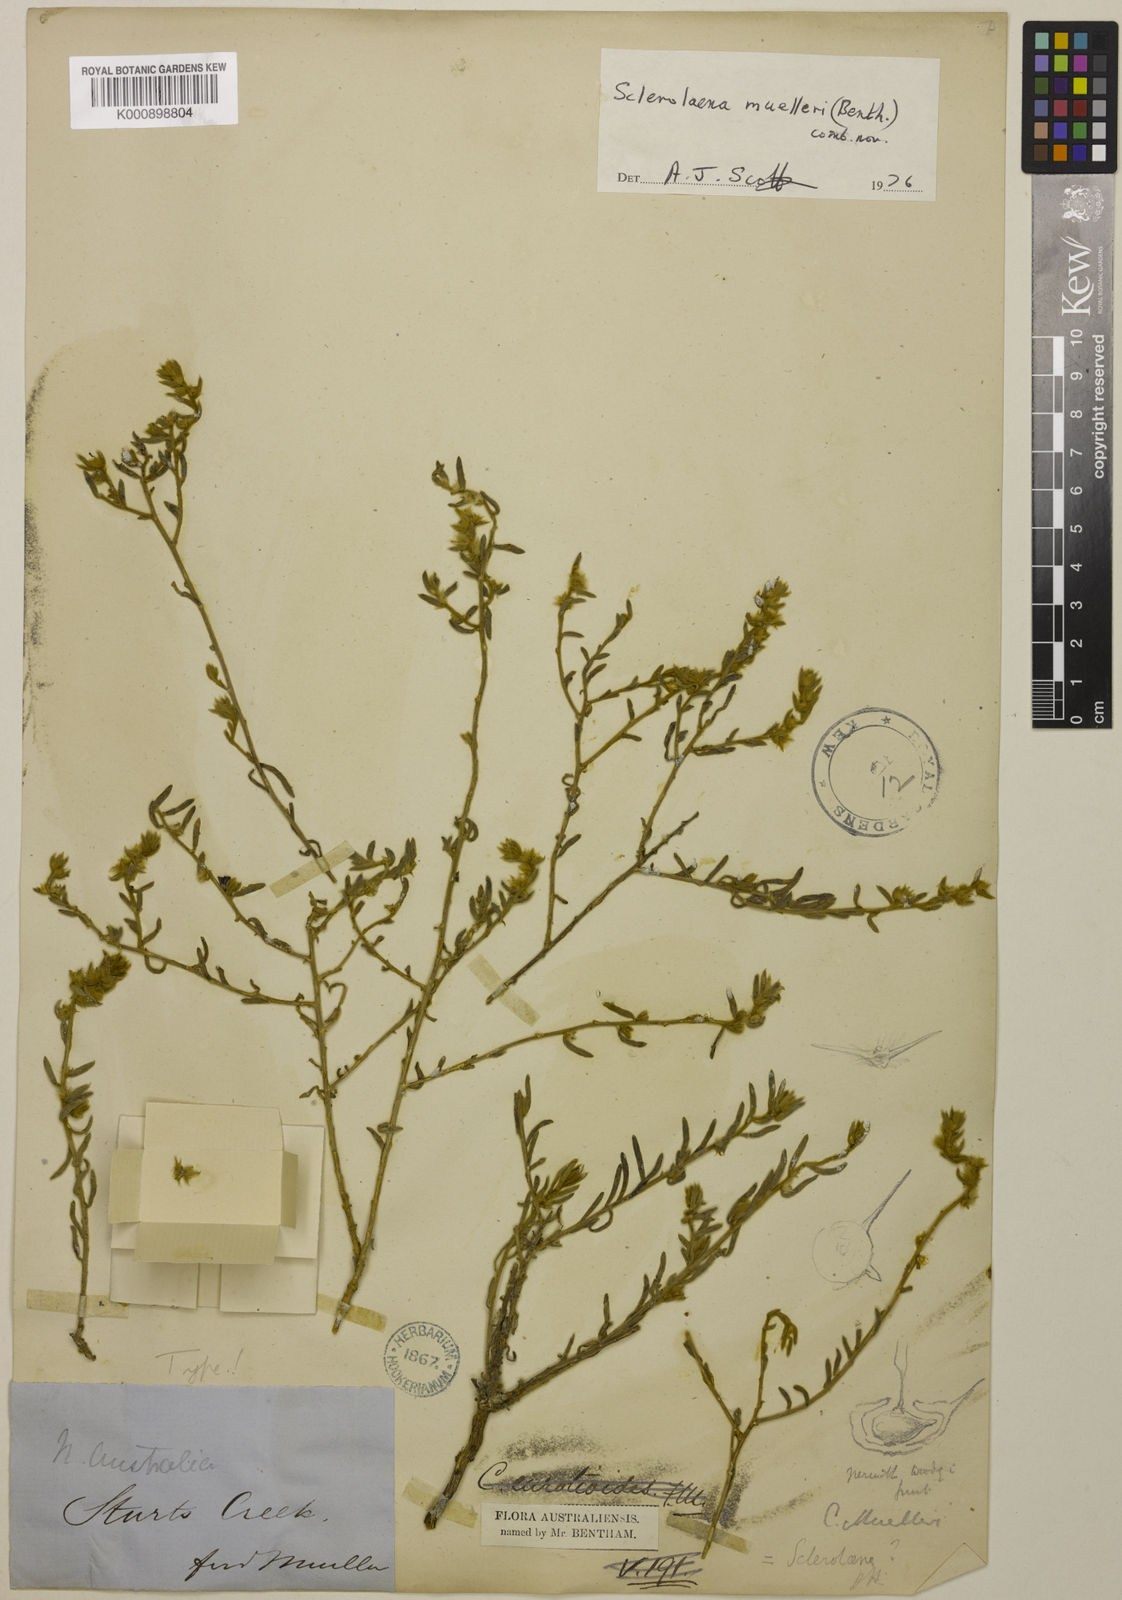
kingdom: Plantae
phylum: Tracheophyta
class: Magnoliopsida
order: Caryophyllales
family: Amaranthaceae
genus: Sclerolaena
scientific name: Sclerolaena muelleri
